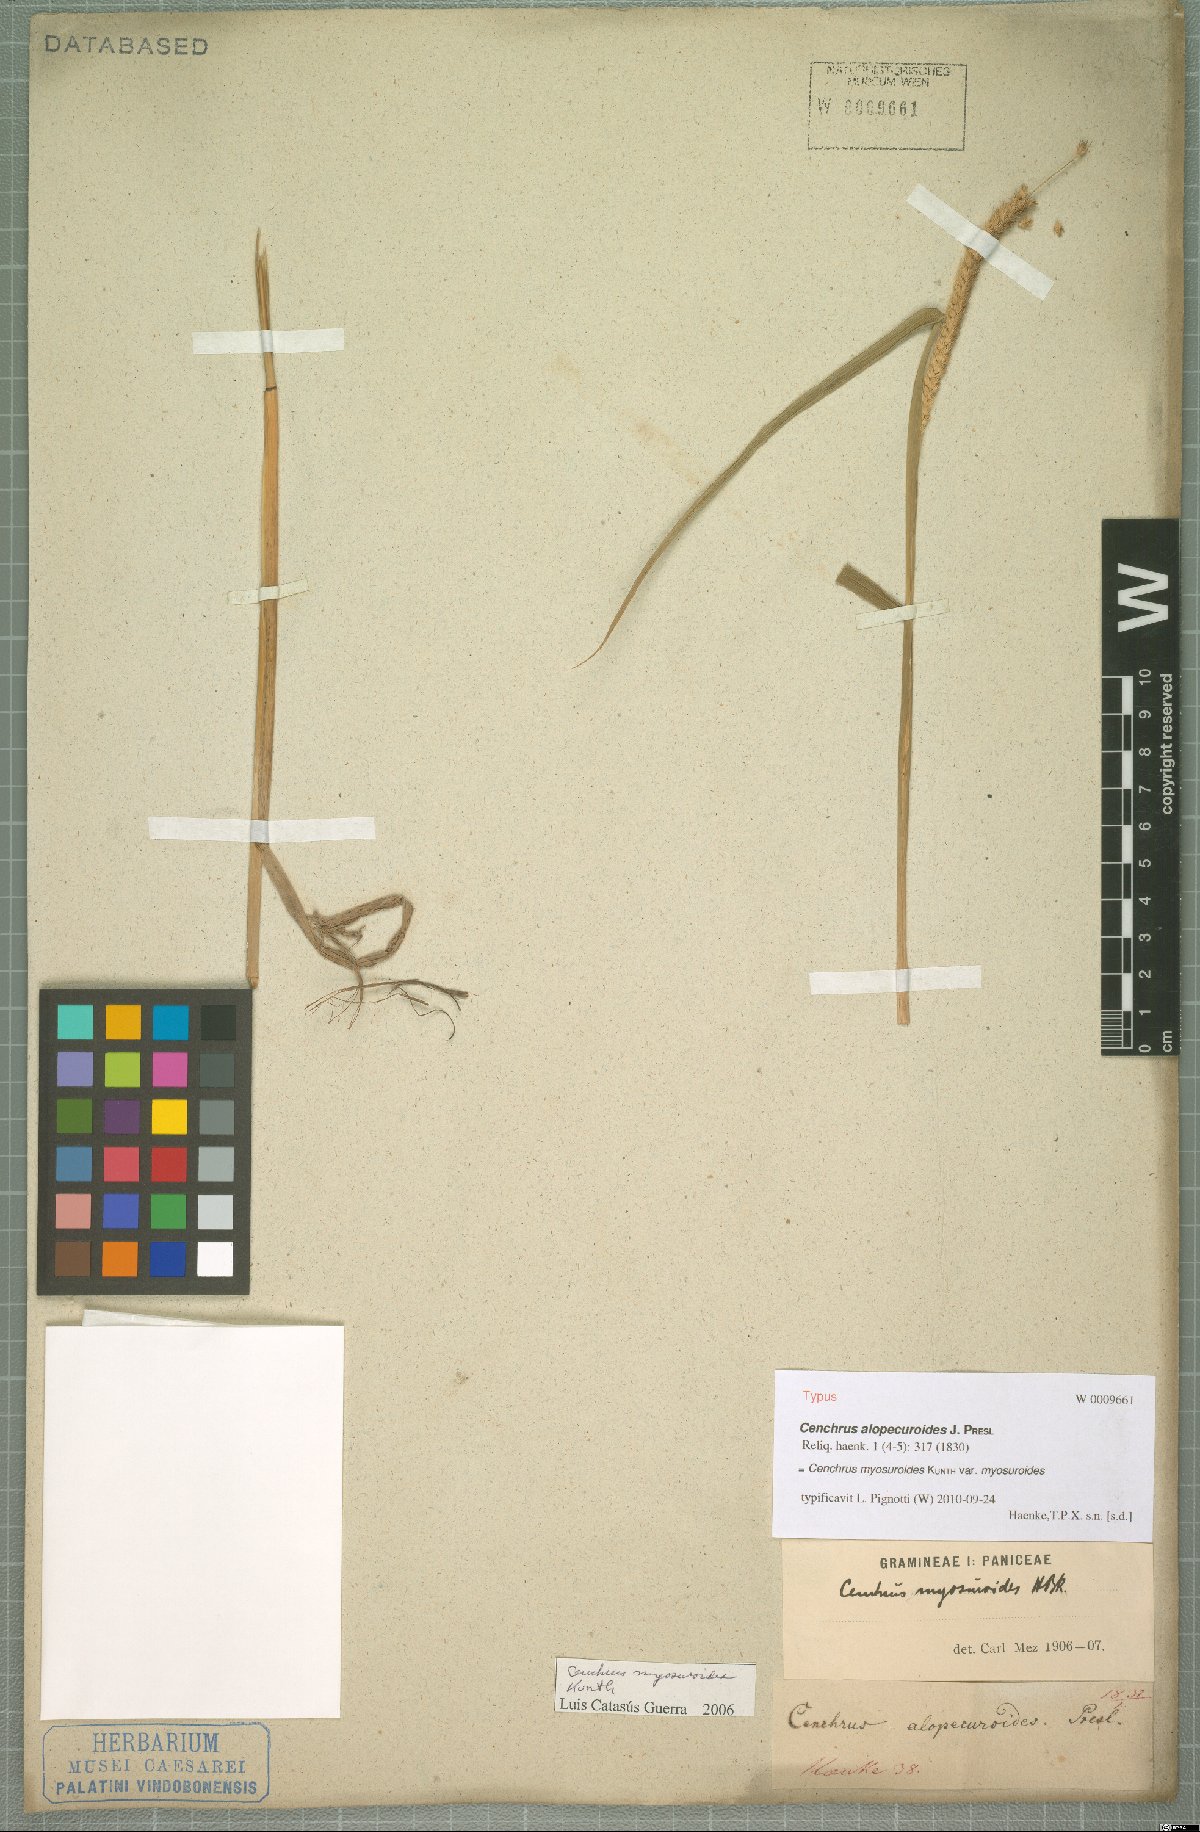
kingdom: Plantae
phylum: Tracheophyta
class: Liliopsida
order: Poales
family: Poaceae
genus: Cenchrus
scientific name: Cenchrus myosuroides
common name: Big sandbur
